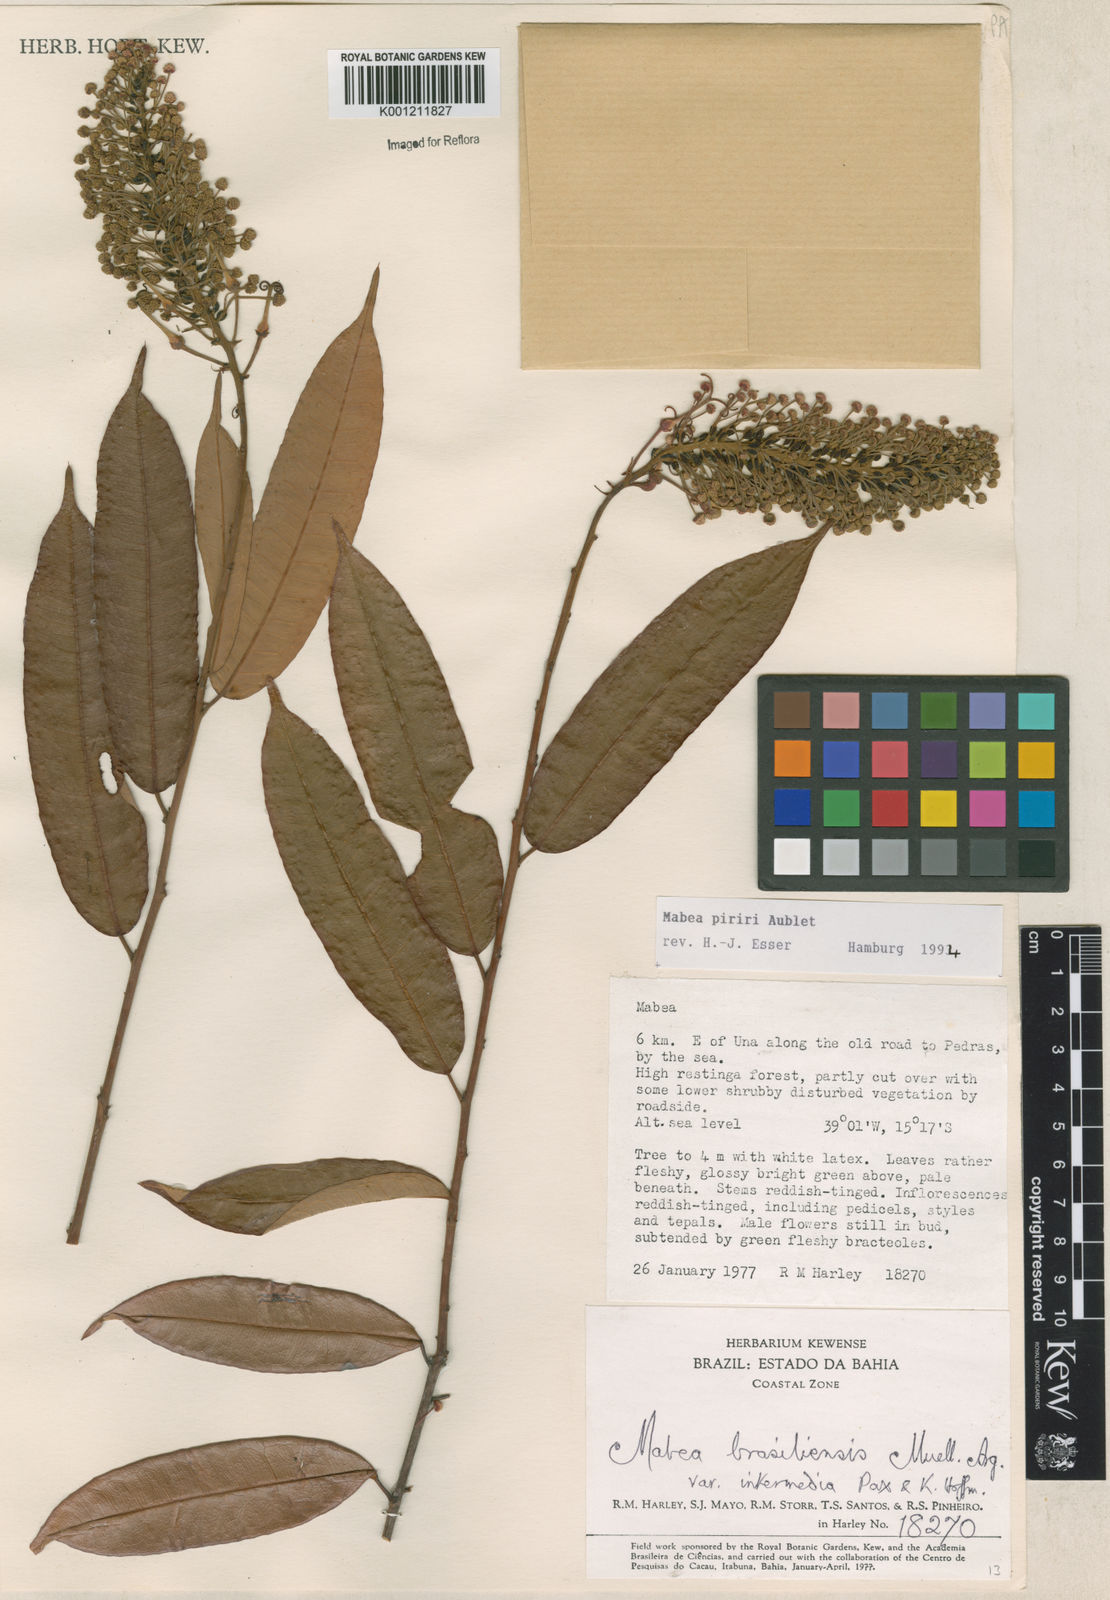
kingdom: Plantae
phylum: Tracheophyta
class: Magnoliopsida
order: Malpighiales
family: Euphorbiaceae
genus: Mabea
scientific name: Mabea piriri
